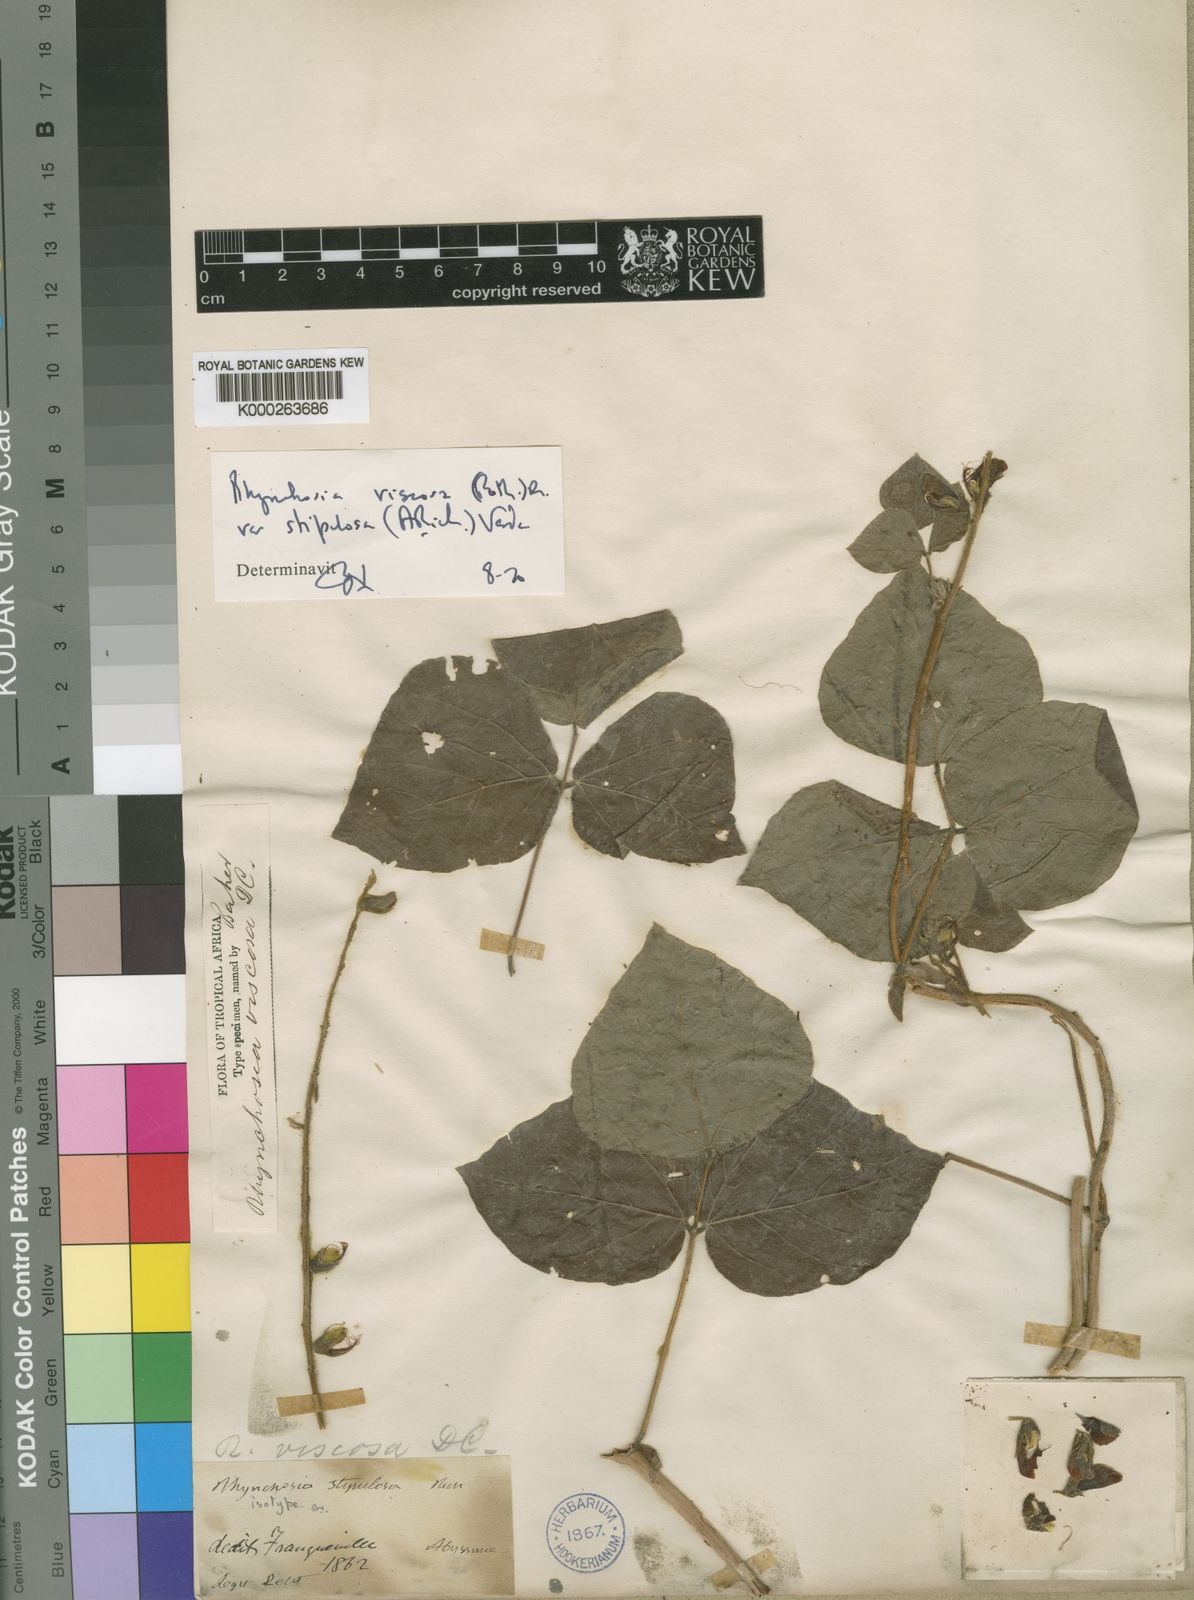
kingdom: Plantae
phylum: Tracheophyta
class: Magnoliopsida
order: Fabales
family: Fabaceae
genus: Rhynchosia
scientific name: Rhynchosia stipulosa
